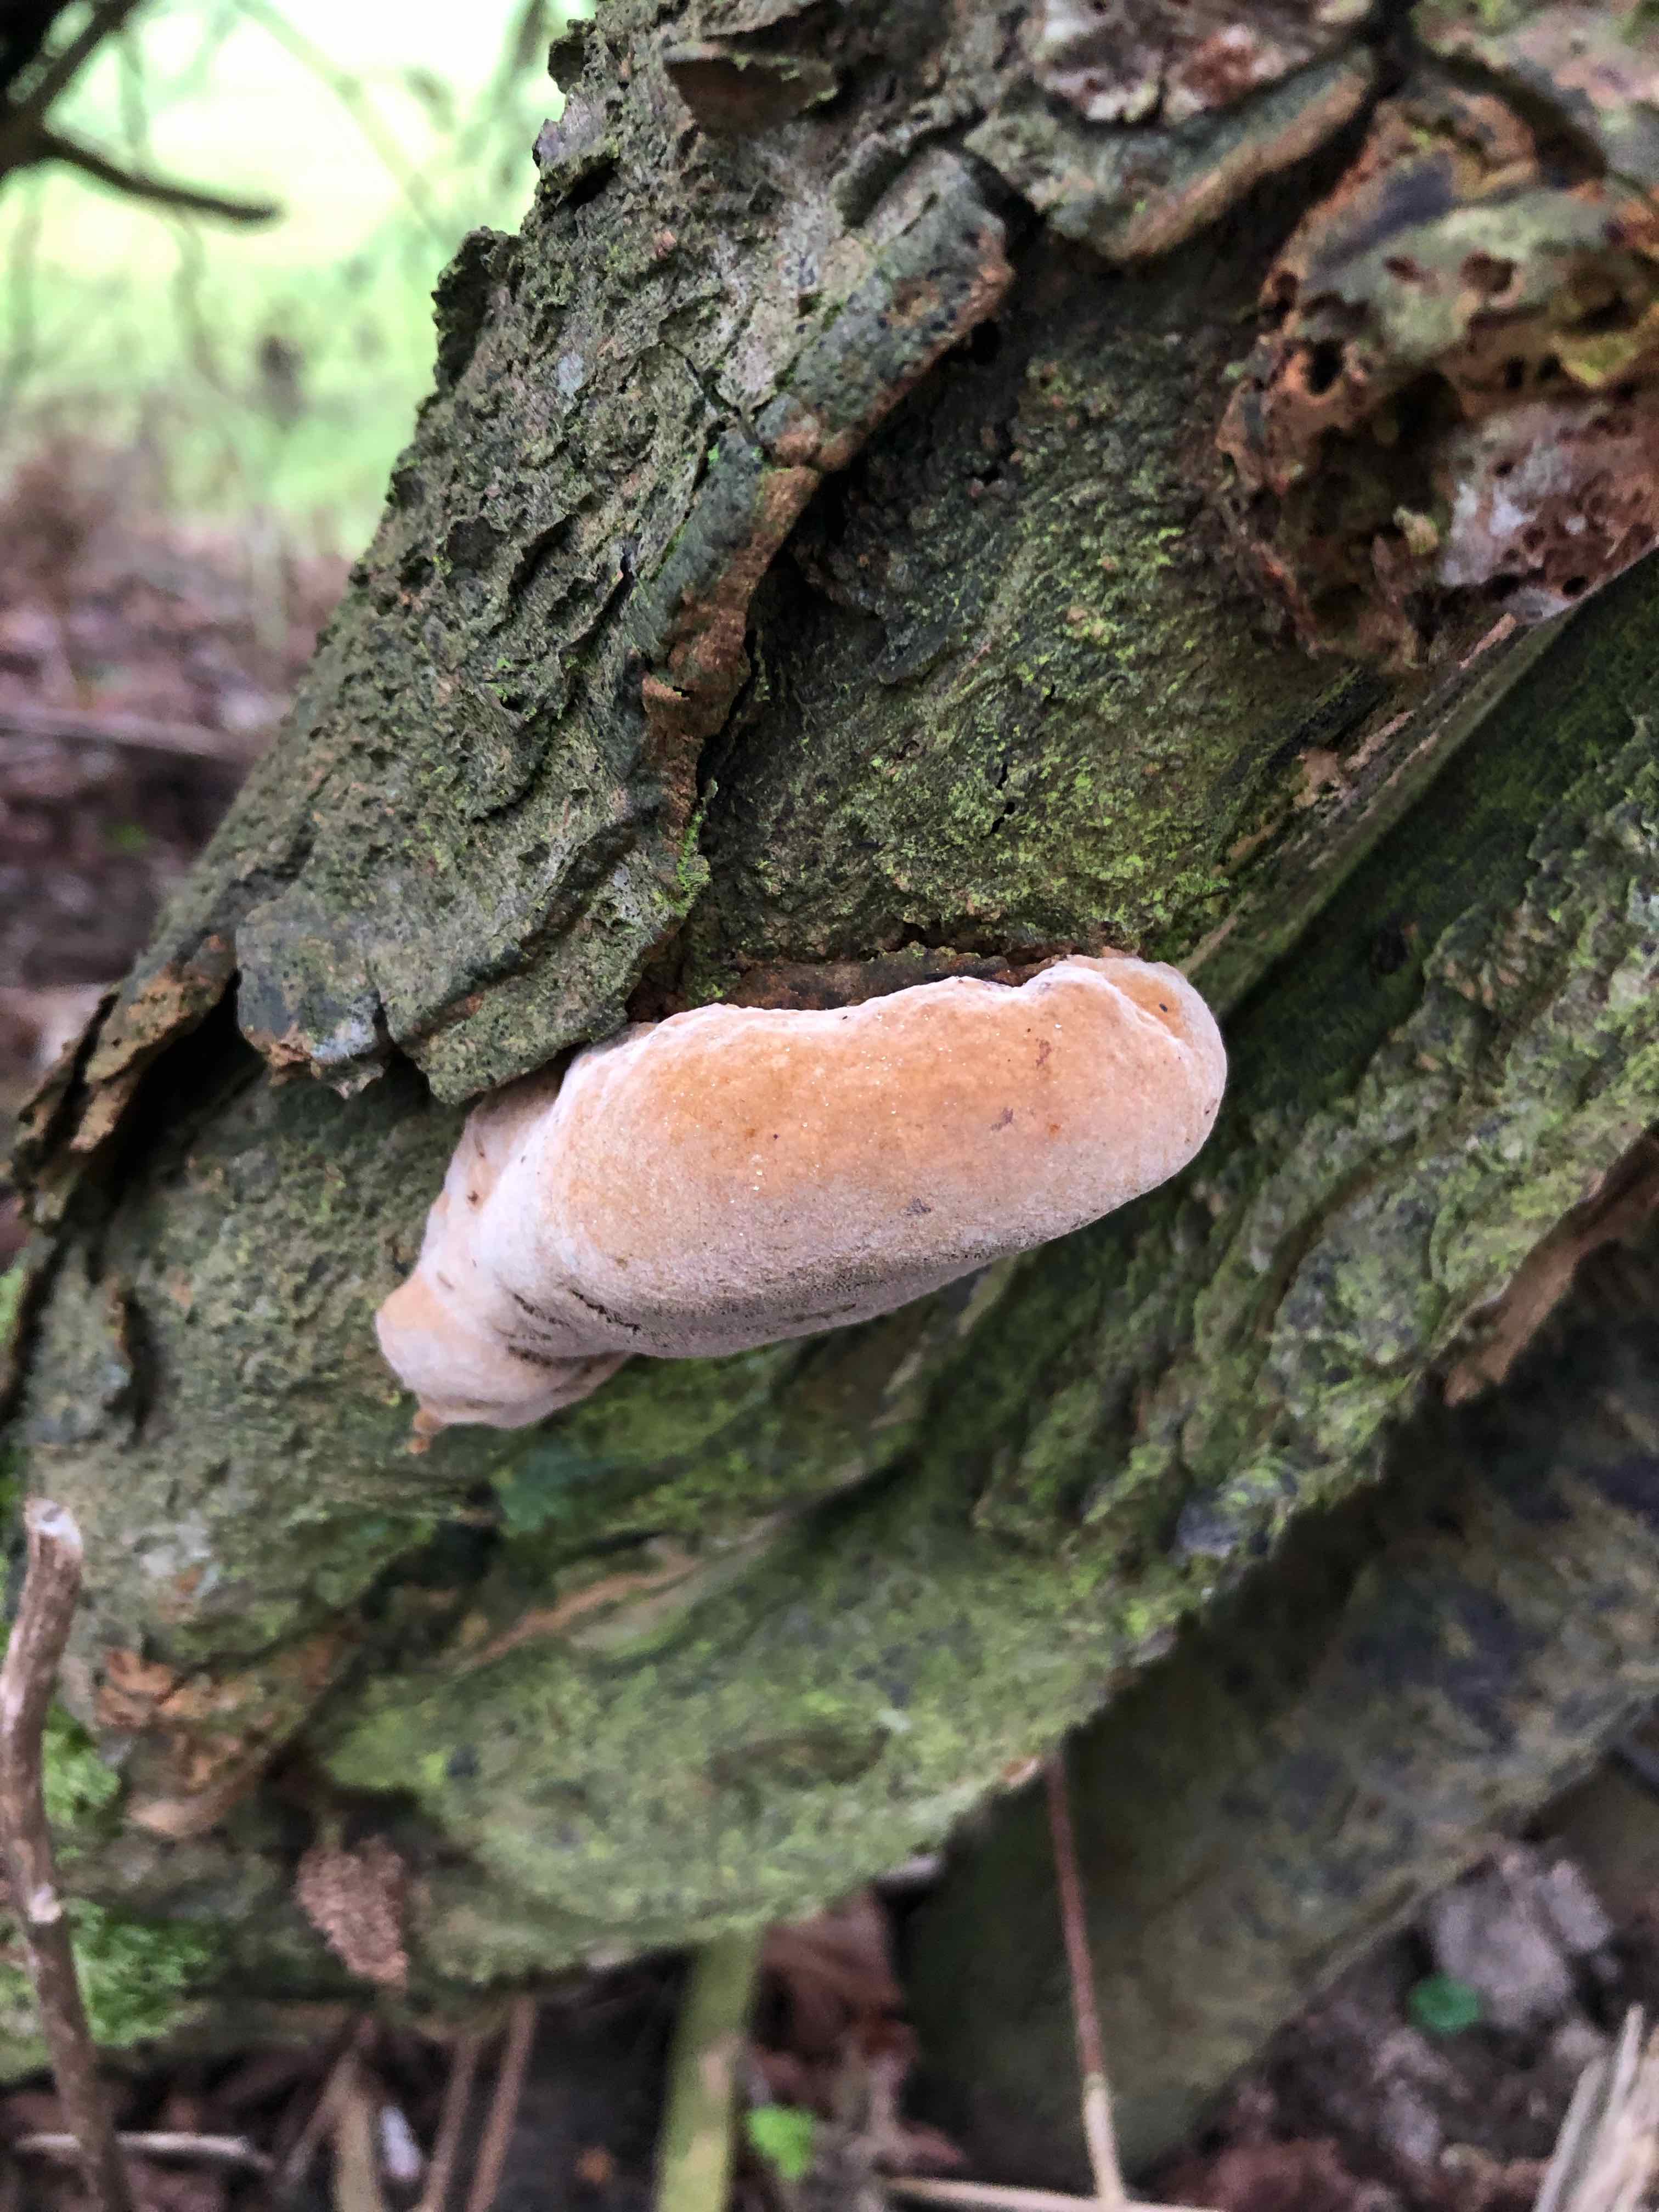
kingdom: Fungi
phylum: Basidiomycota
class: Agaricomycetes
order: Hymenochaetales
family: Hymenochaetaceae
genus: Phellinus
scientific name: Phellinus pomaceus
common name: blomme-ildporesvamp
